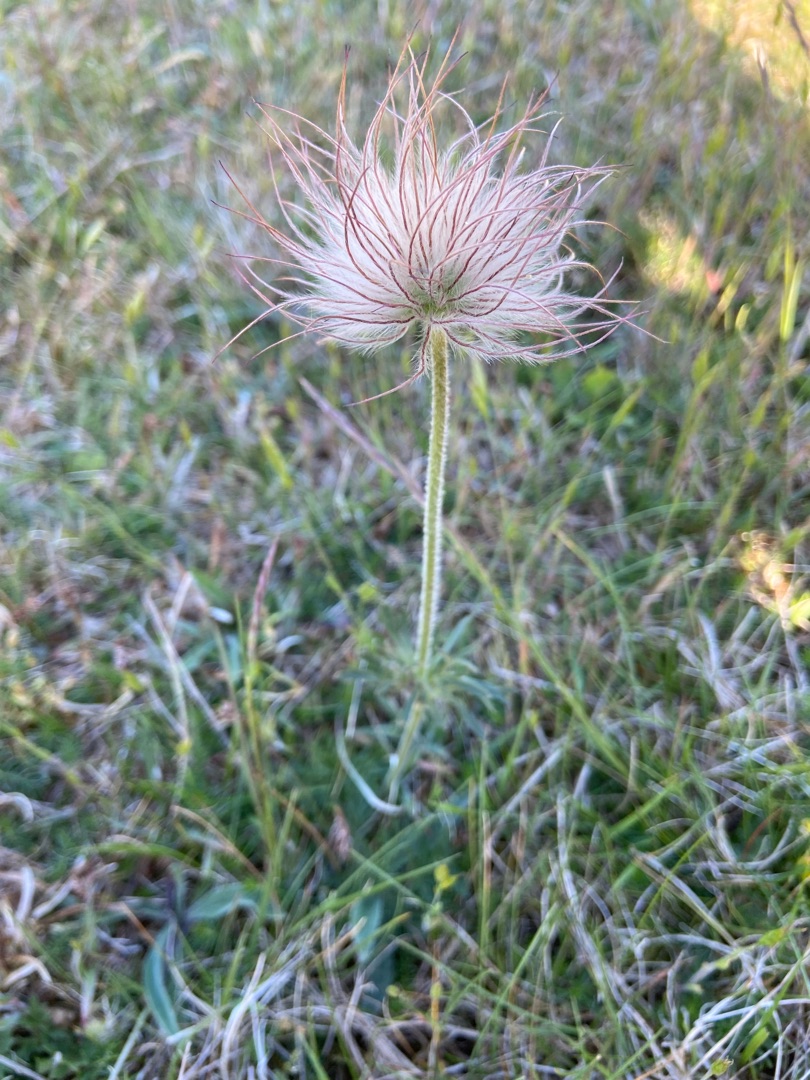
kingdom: Plantae
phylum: Tracheophyta
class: Magnoliopsida
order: Ranunculales
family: Ranunculaceae
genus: Pulsatilla
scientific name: Pulsatilla pratensis
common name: Nikkende kobjælde
